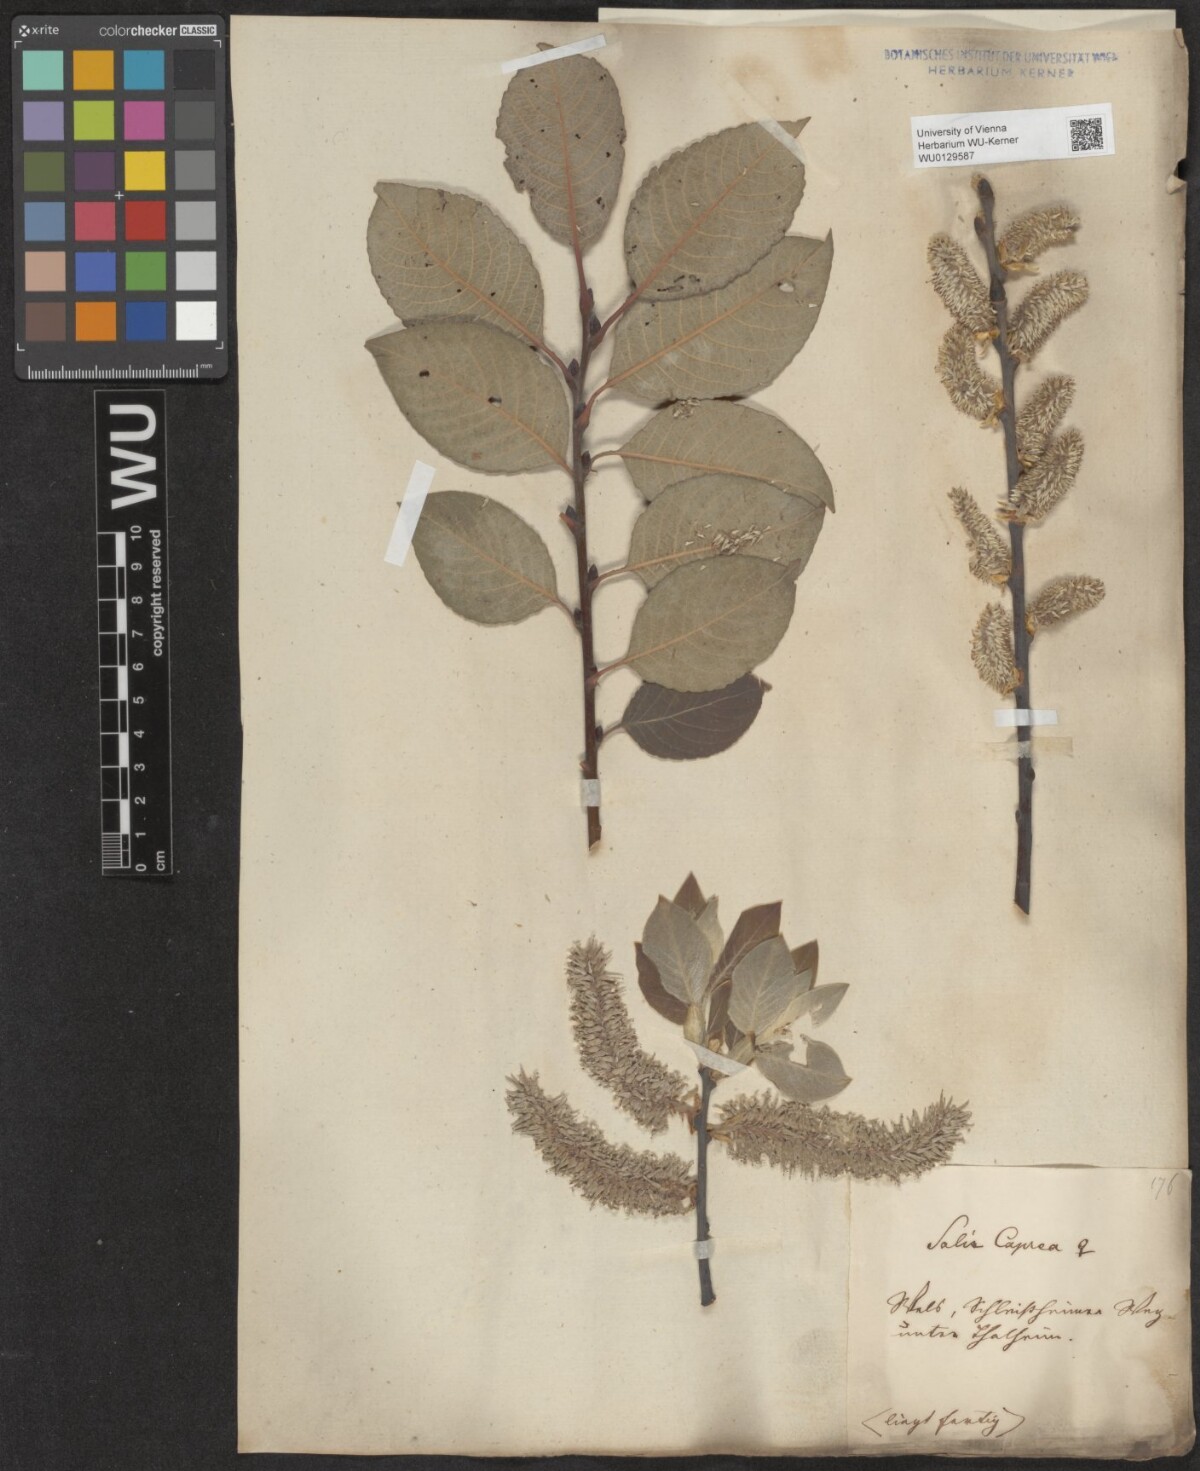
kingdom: Plantae
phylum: Tracheophyta
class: Magnoliopsida
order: Malpighiales
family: Salicaceae
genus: Salix
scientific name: Salix caprea
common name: Goat willow
